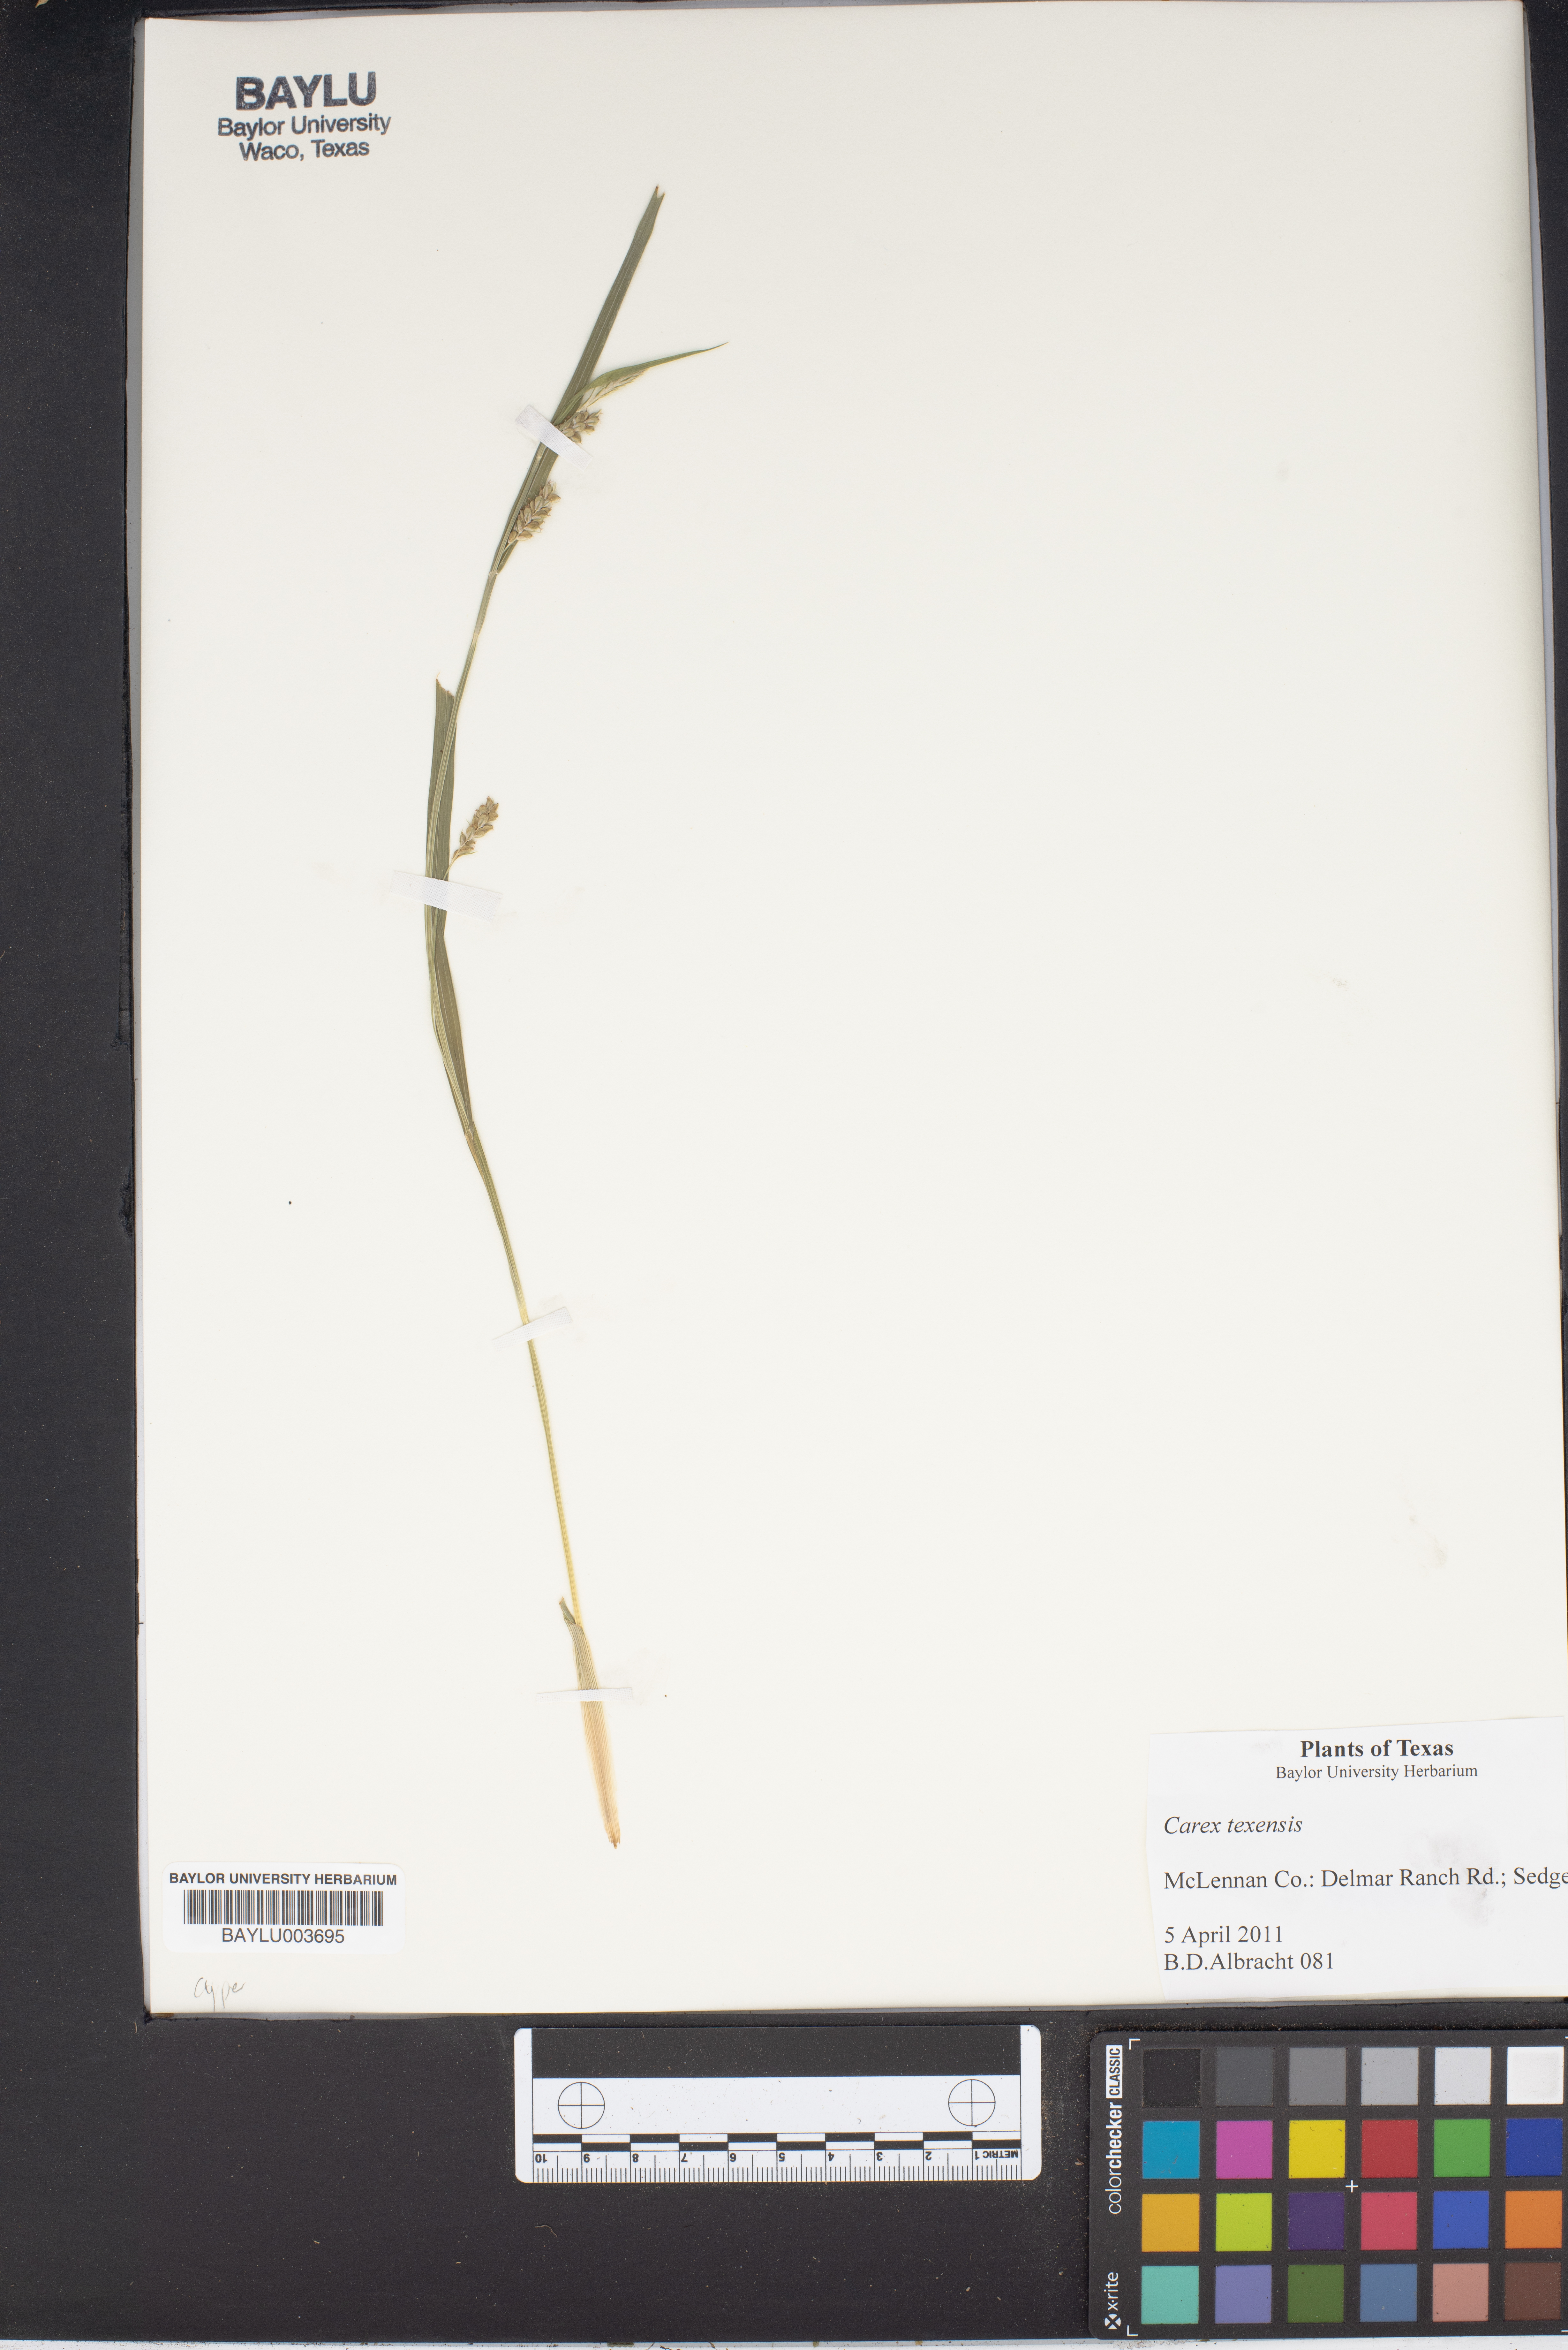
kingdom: Plantae
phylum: Tracheophyta
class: Liliopsida
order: Poales
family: Cyperaceae
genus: Carex
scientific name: Carex texensis
